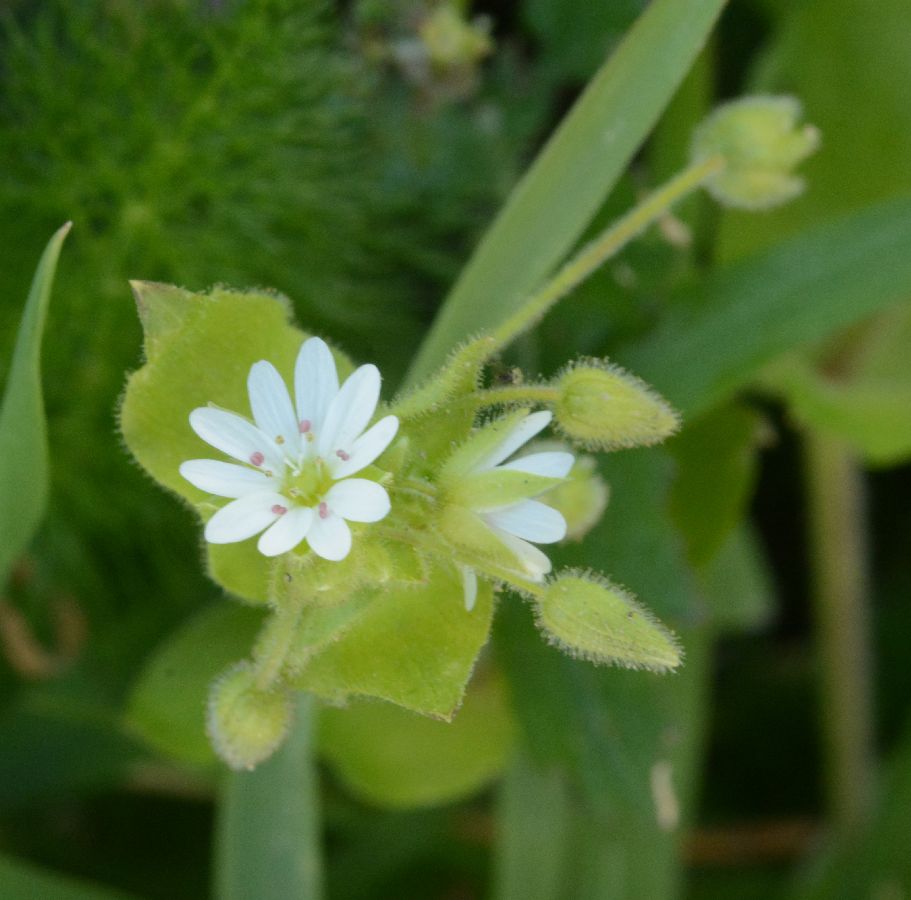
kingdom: Plantae
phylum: Tracheophyta
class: Magnoliopsida
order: Caryophyllales
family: Caryophyllaceae
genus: Stellaria
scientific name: Stellaria cupaniana
